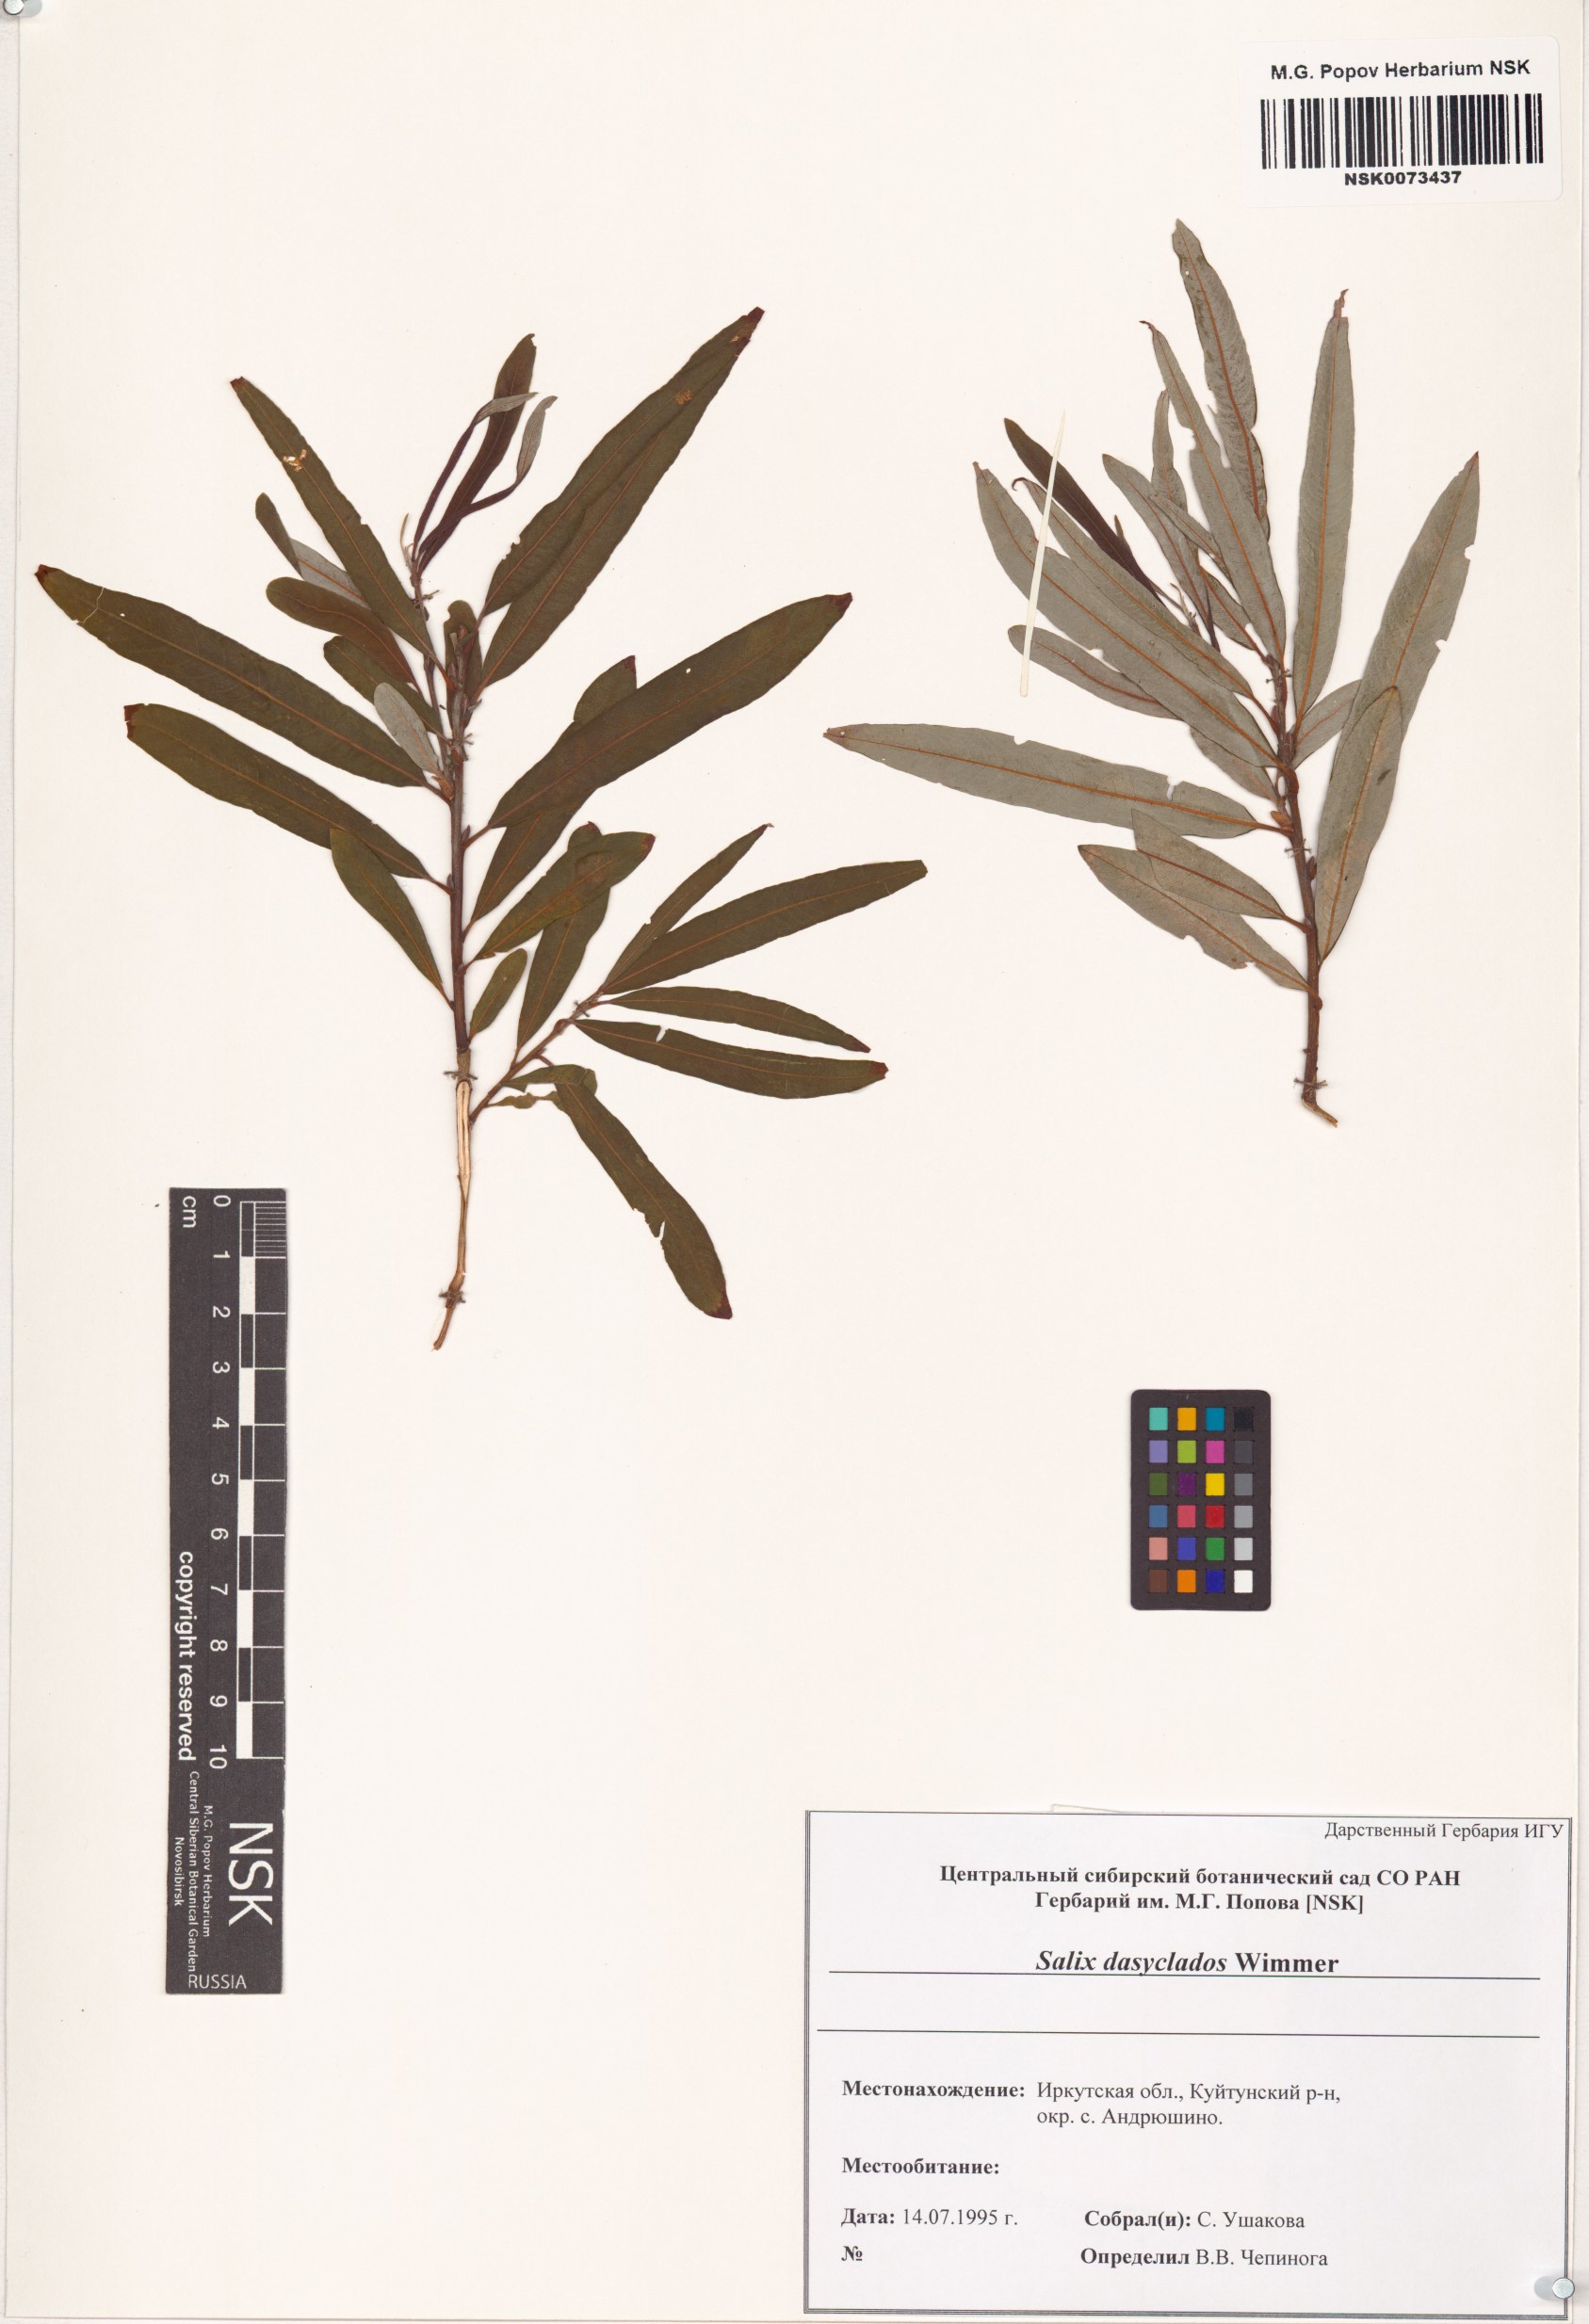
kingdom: Plantae
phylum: Tracheophyta
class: Magnoliopsida
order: Malpighiales
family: Salicaceae
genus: Salix
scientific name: Salix gmelinii
